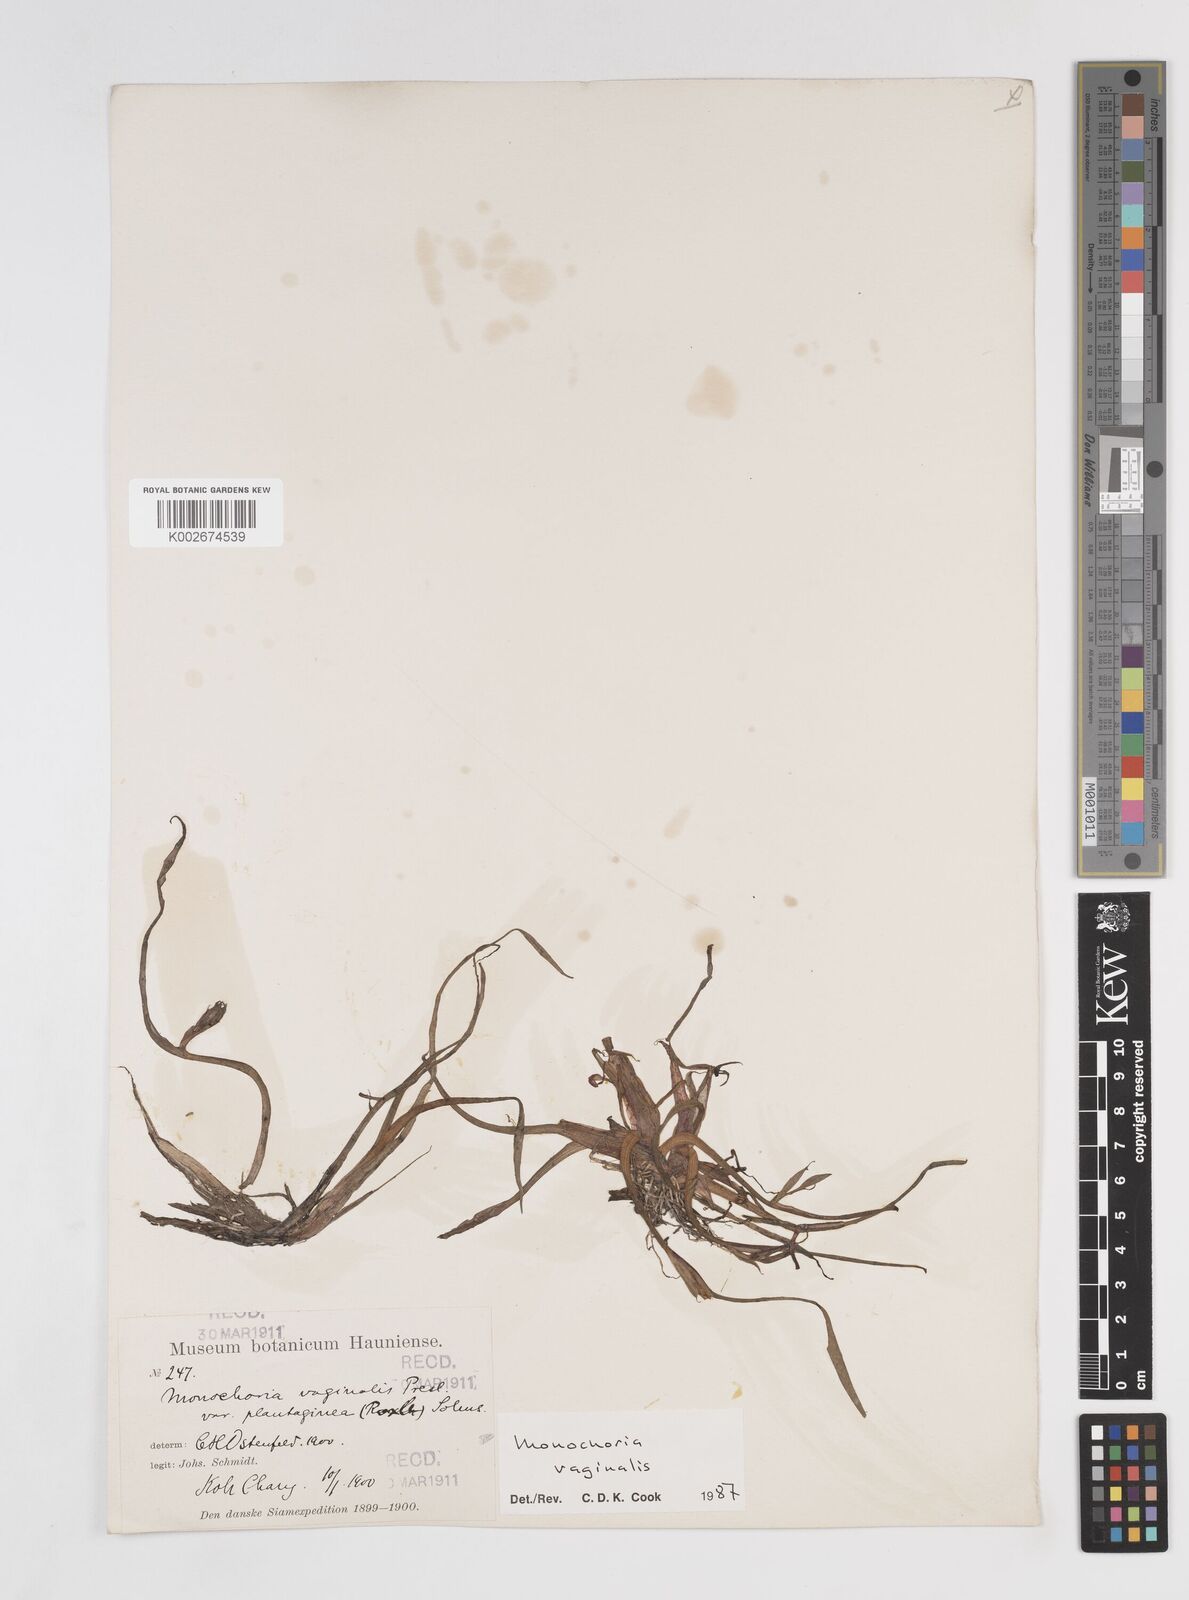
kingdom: Plantae
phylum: Tracheophyta
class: Liliopsida
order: Commelinales
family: Pontederiaceae
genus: Pontederia
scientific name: Pontederia vaginalis
